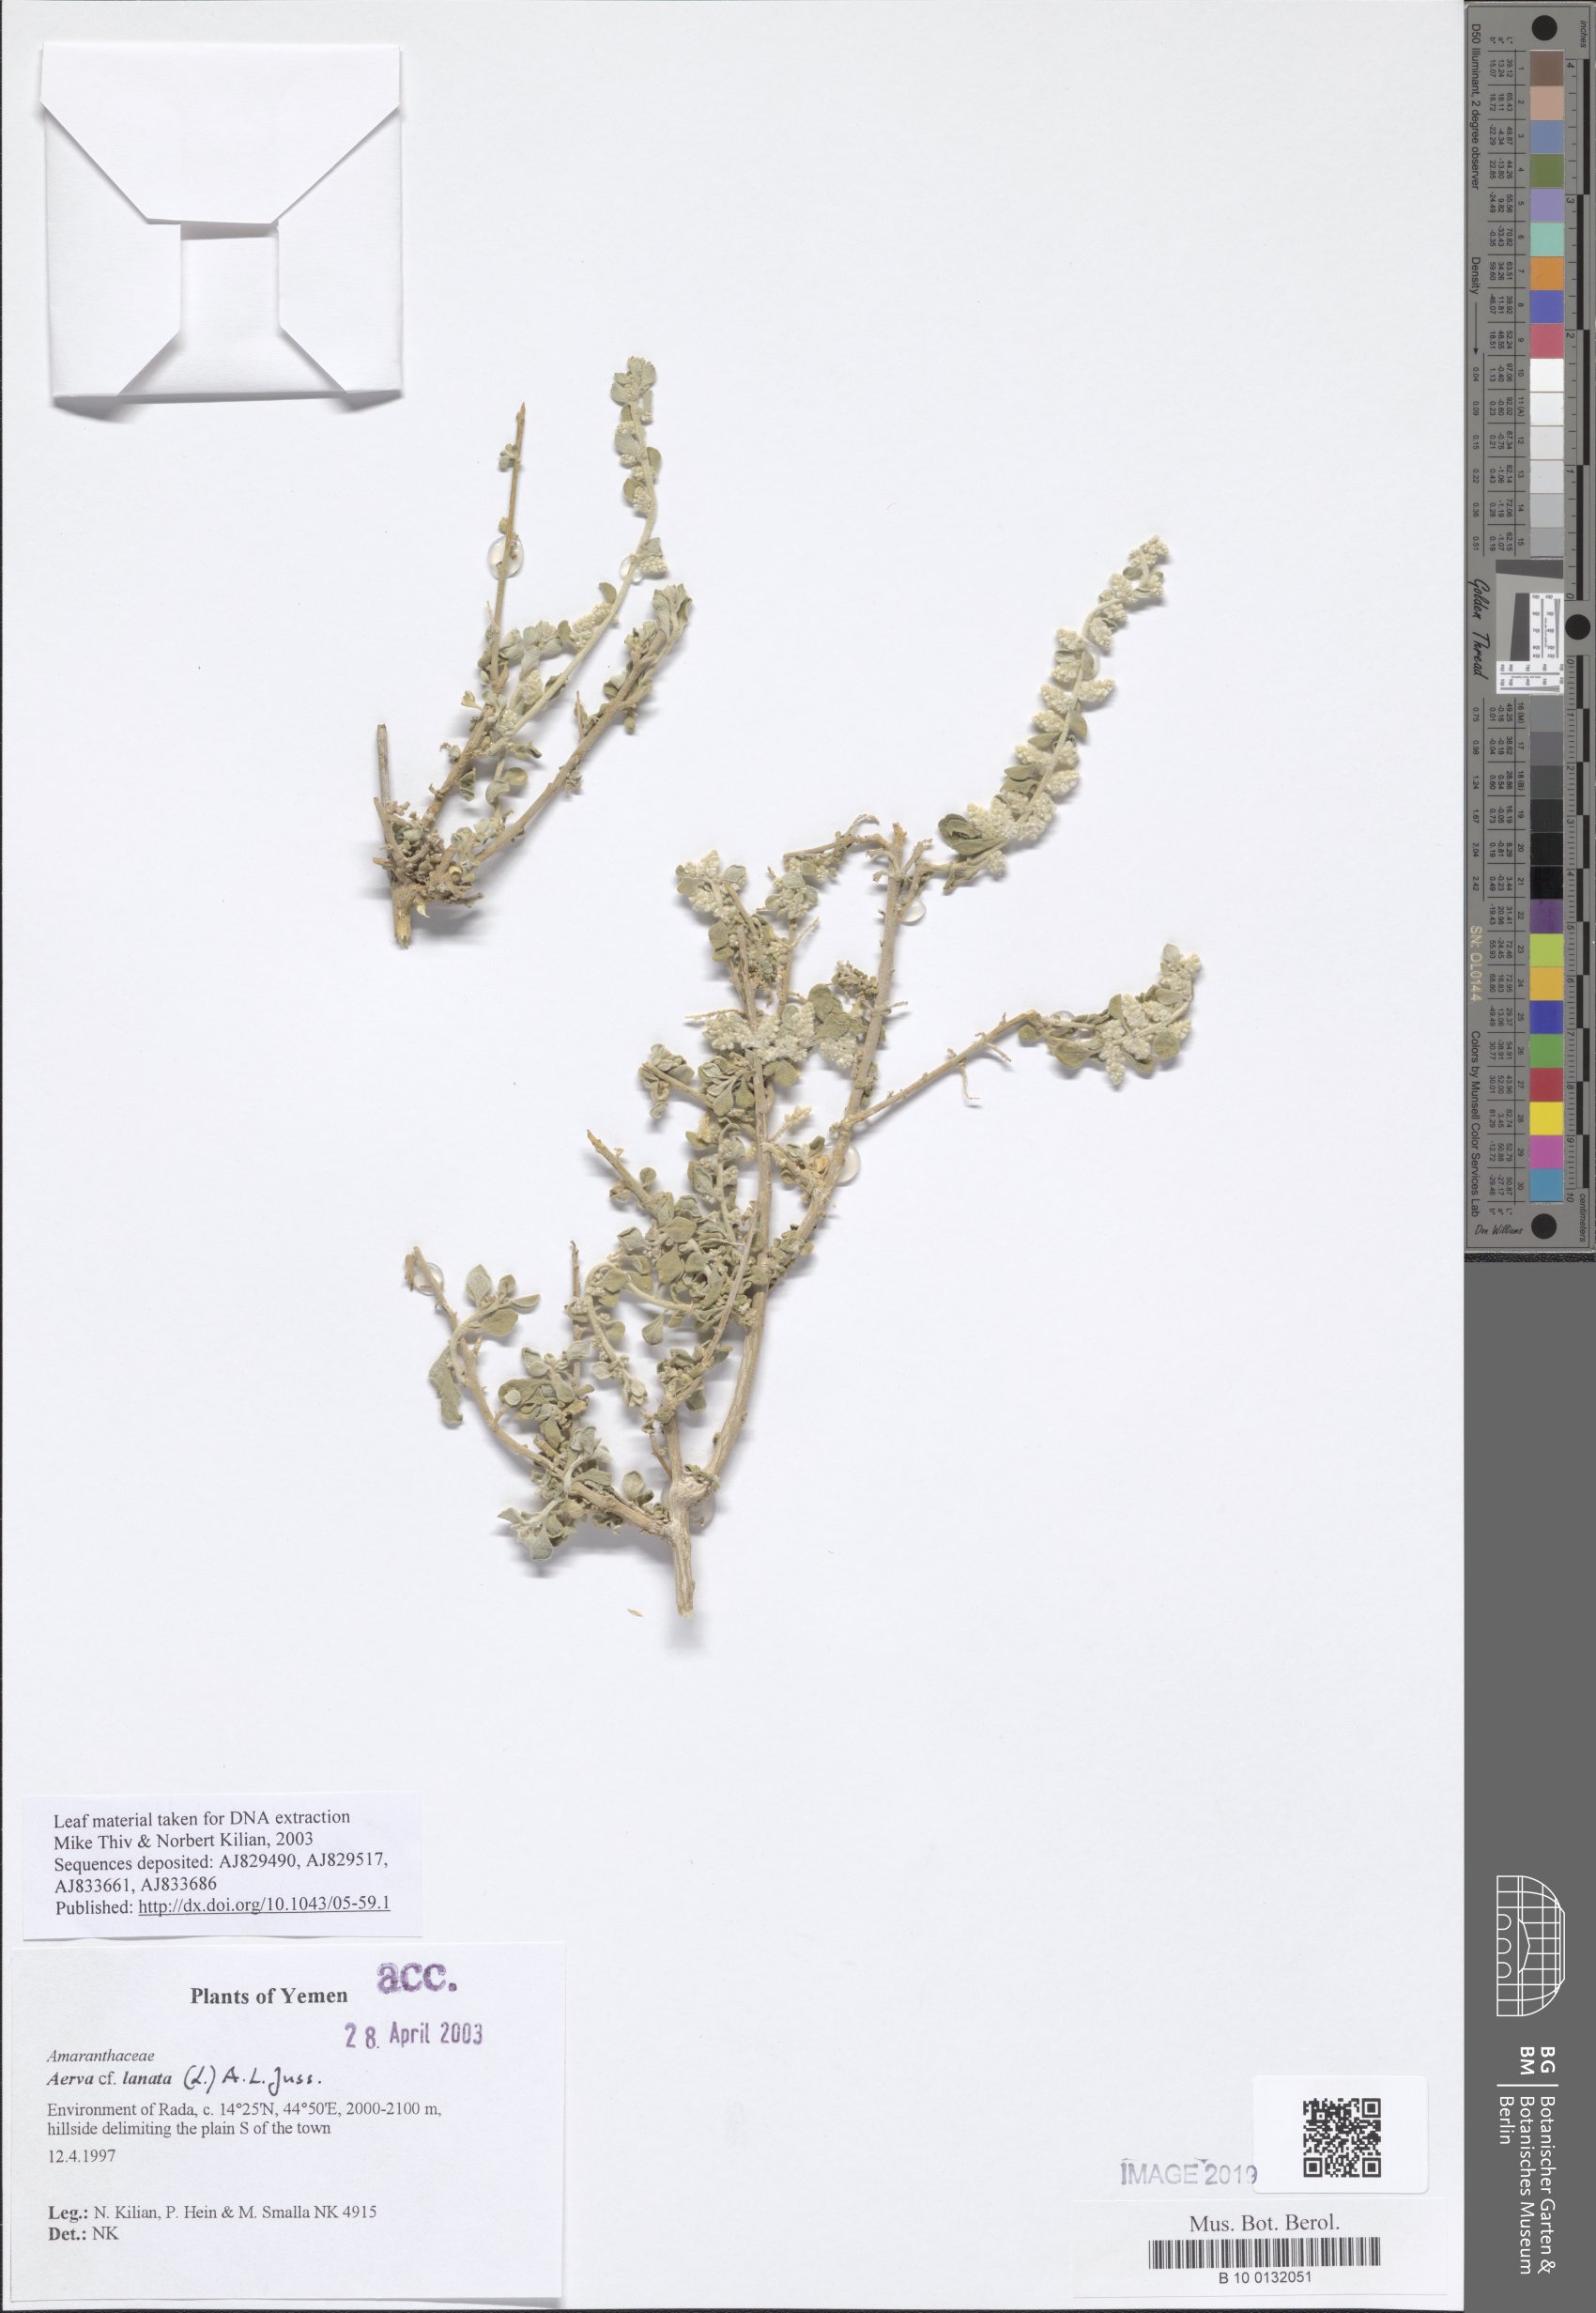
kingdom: Plantae
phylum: Tracheophyta
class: Magnoliopsida
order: Caryophyllales
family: Amaranthaceae
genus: Ouret
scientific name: Ouret lanata
